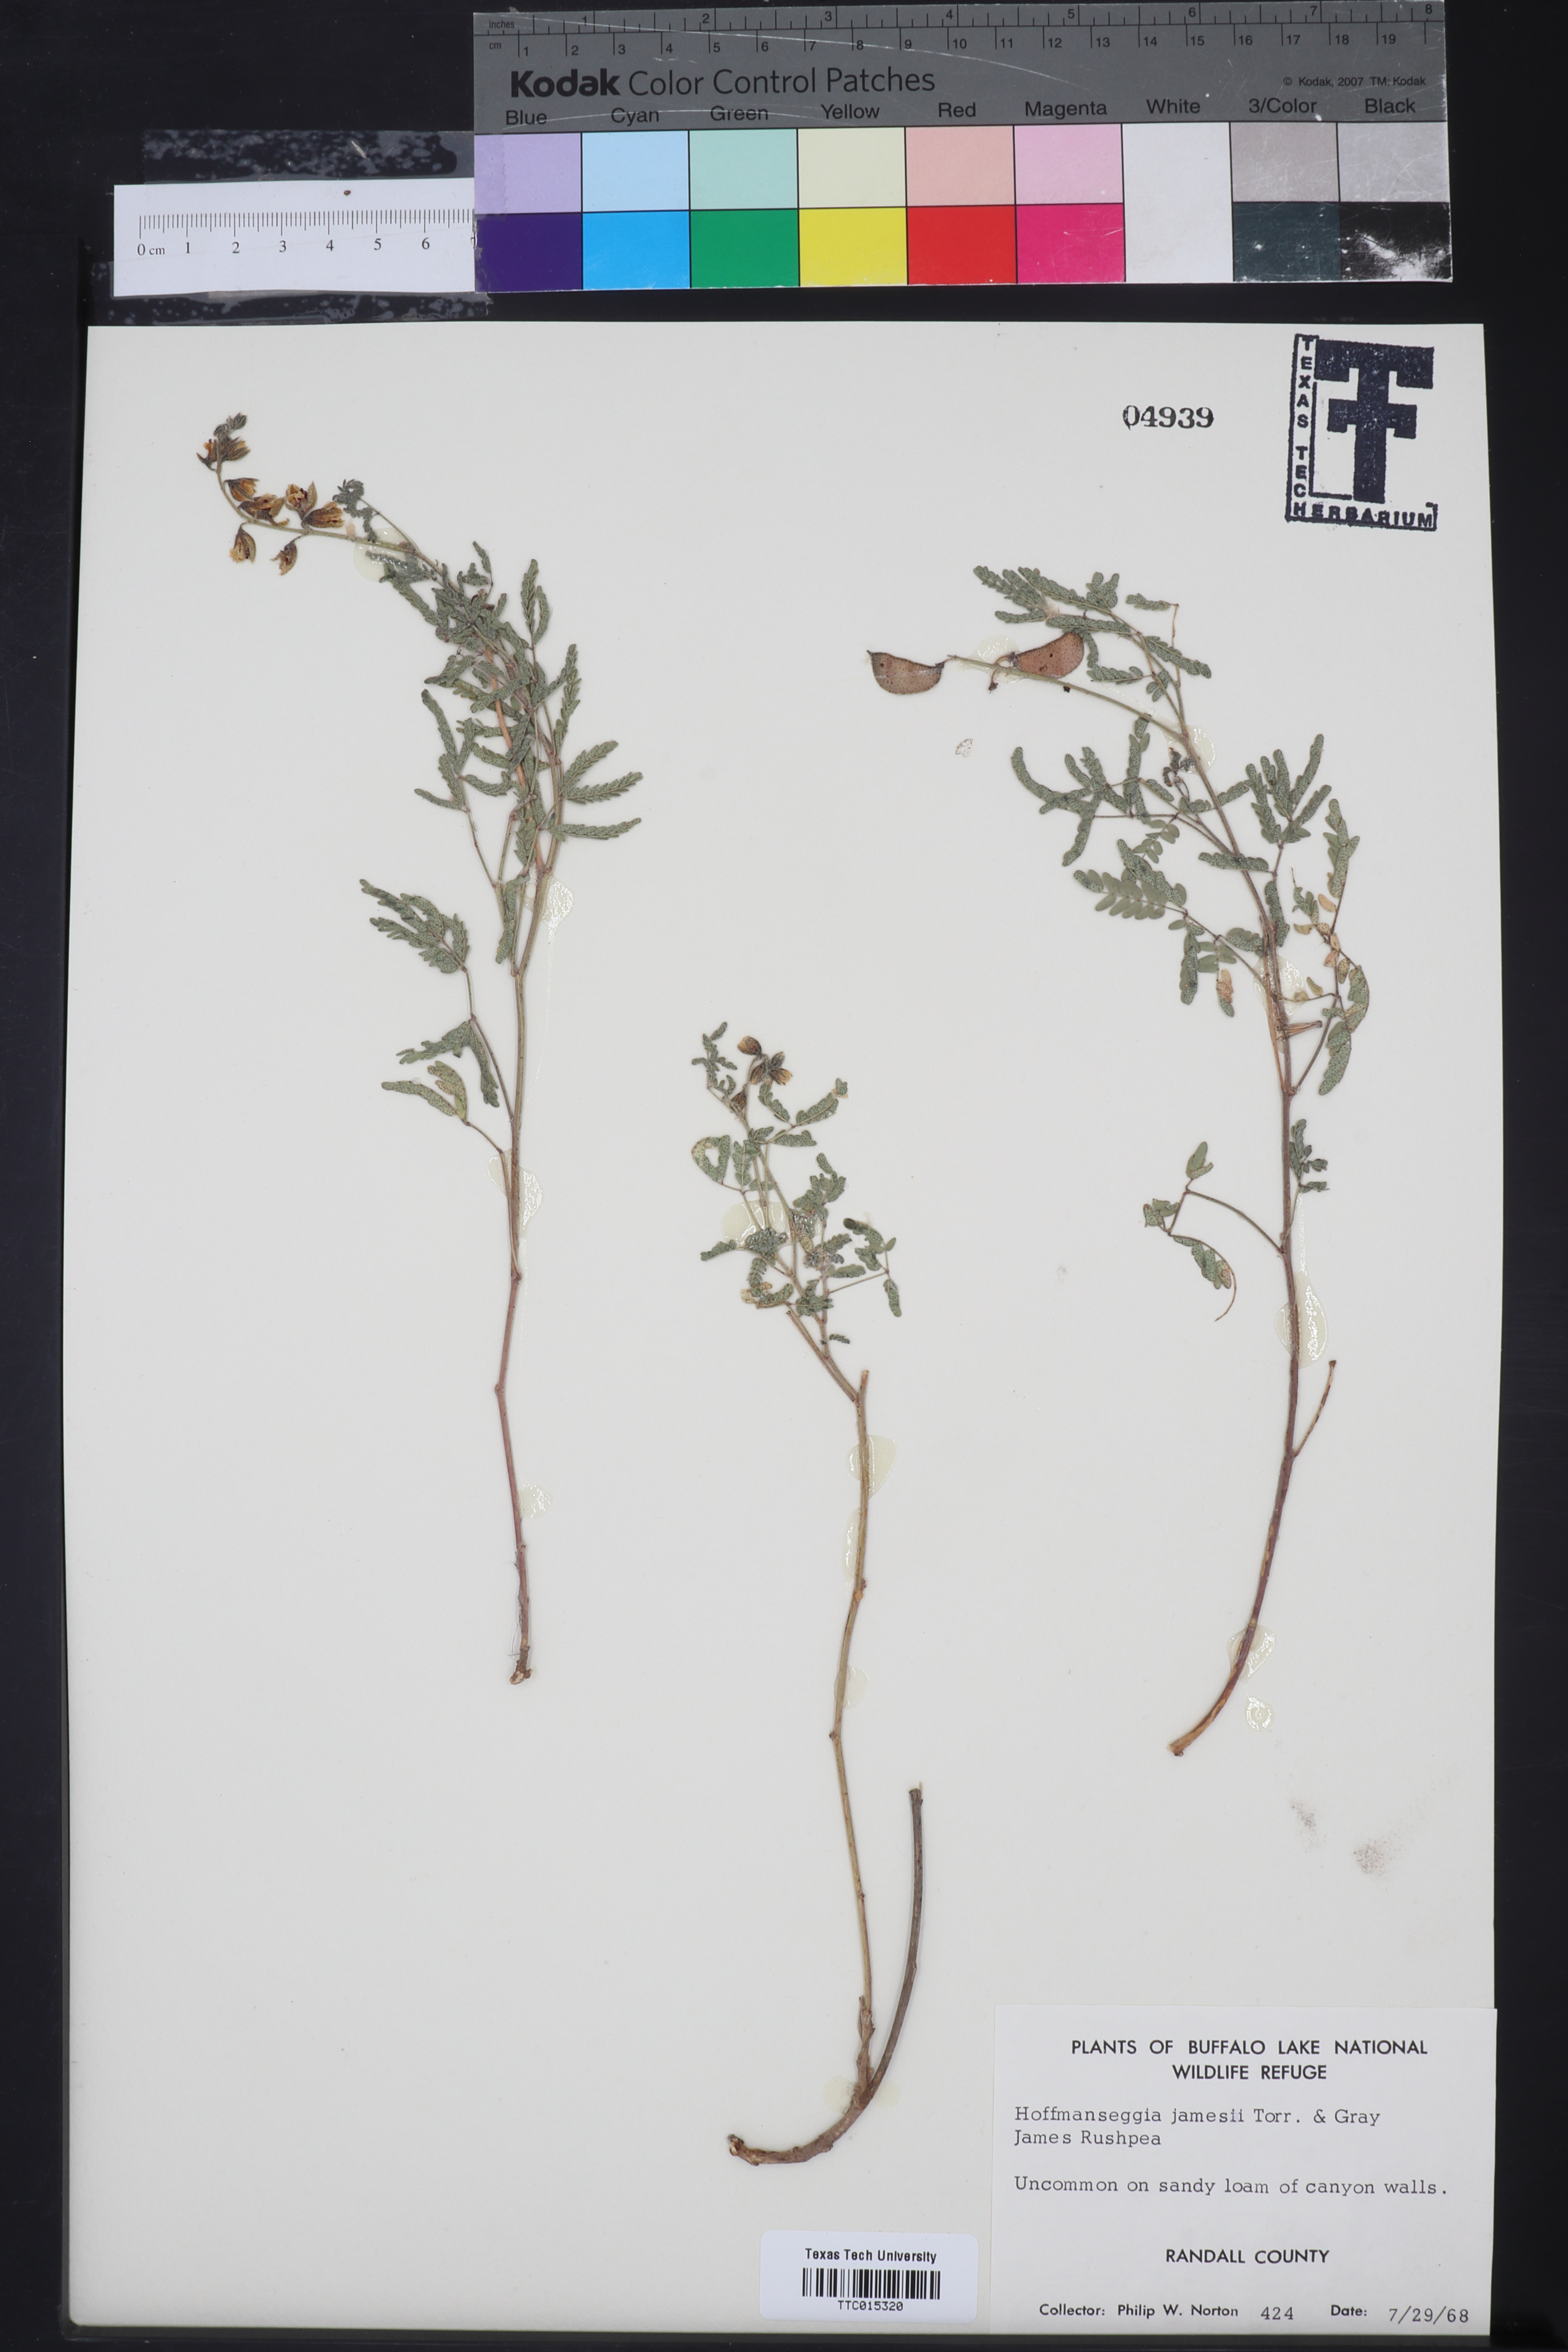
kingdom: Plantae
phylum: Tracheophyta
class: Magnoliopsida
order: Fabales
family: Fabaceae
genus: Pomaria
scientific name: Pomaria jamesii
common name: James' caesalpinia
